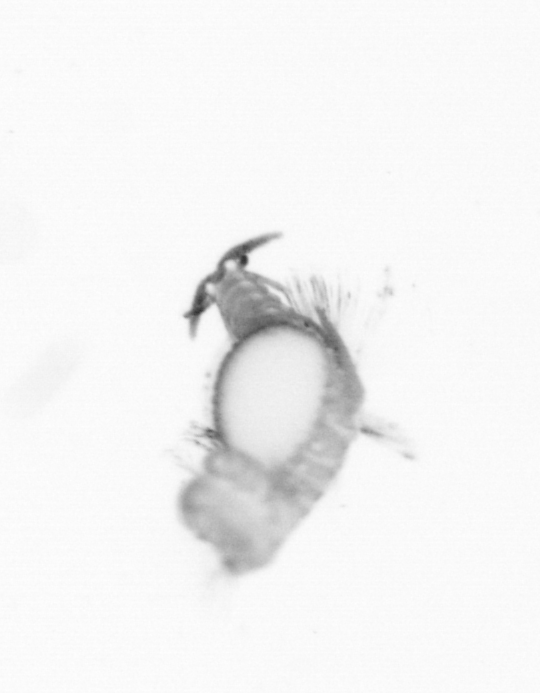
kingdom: Animalia
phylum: Annelida
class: Polychaeta
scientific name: Polychaeta
